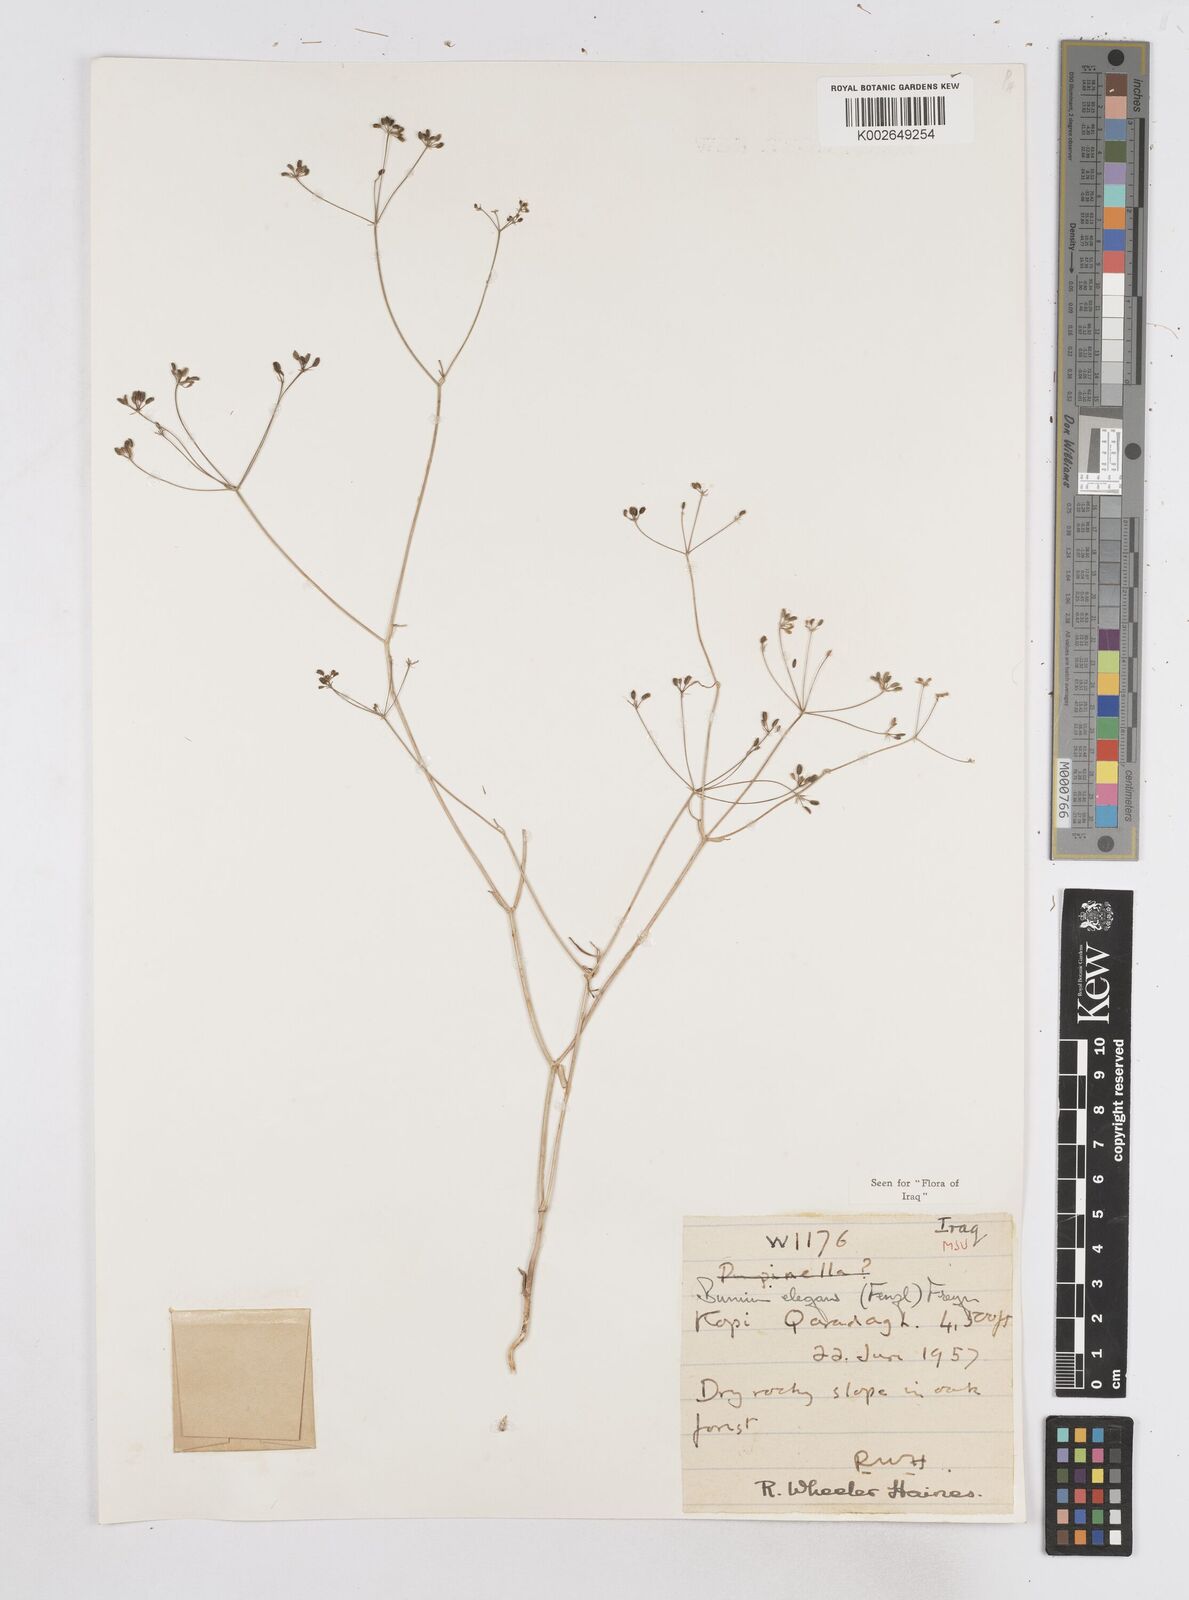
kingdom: Plantae
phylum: Tracheophyta
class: Magnoliopsida
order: Apiales
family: Apiaceae
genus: Bunium
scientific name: Bunium paucifolium
